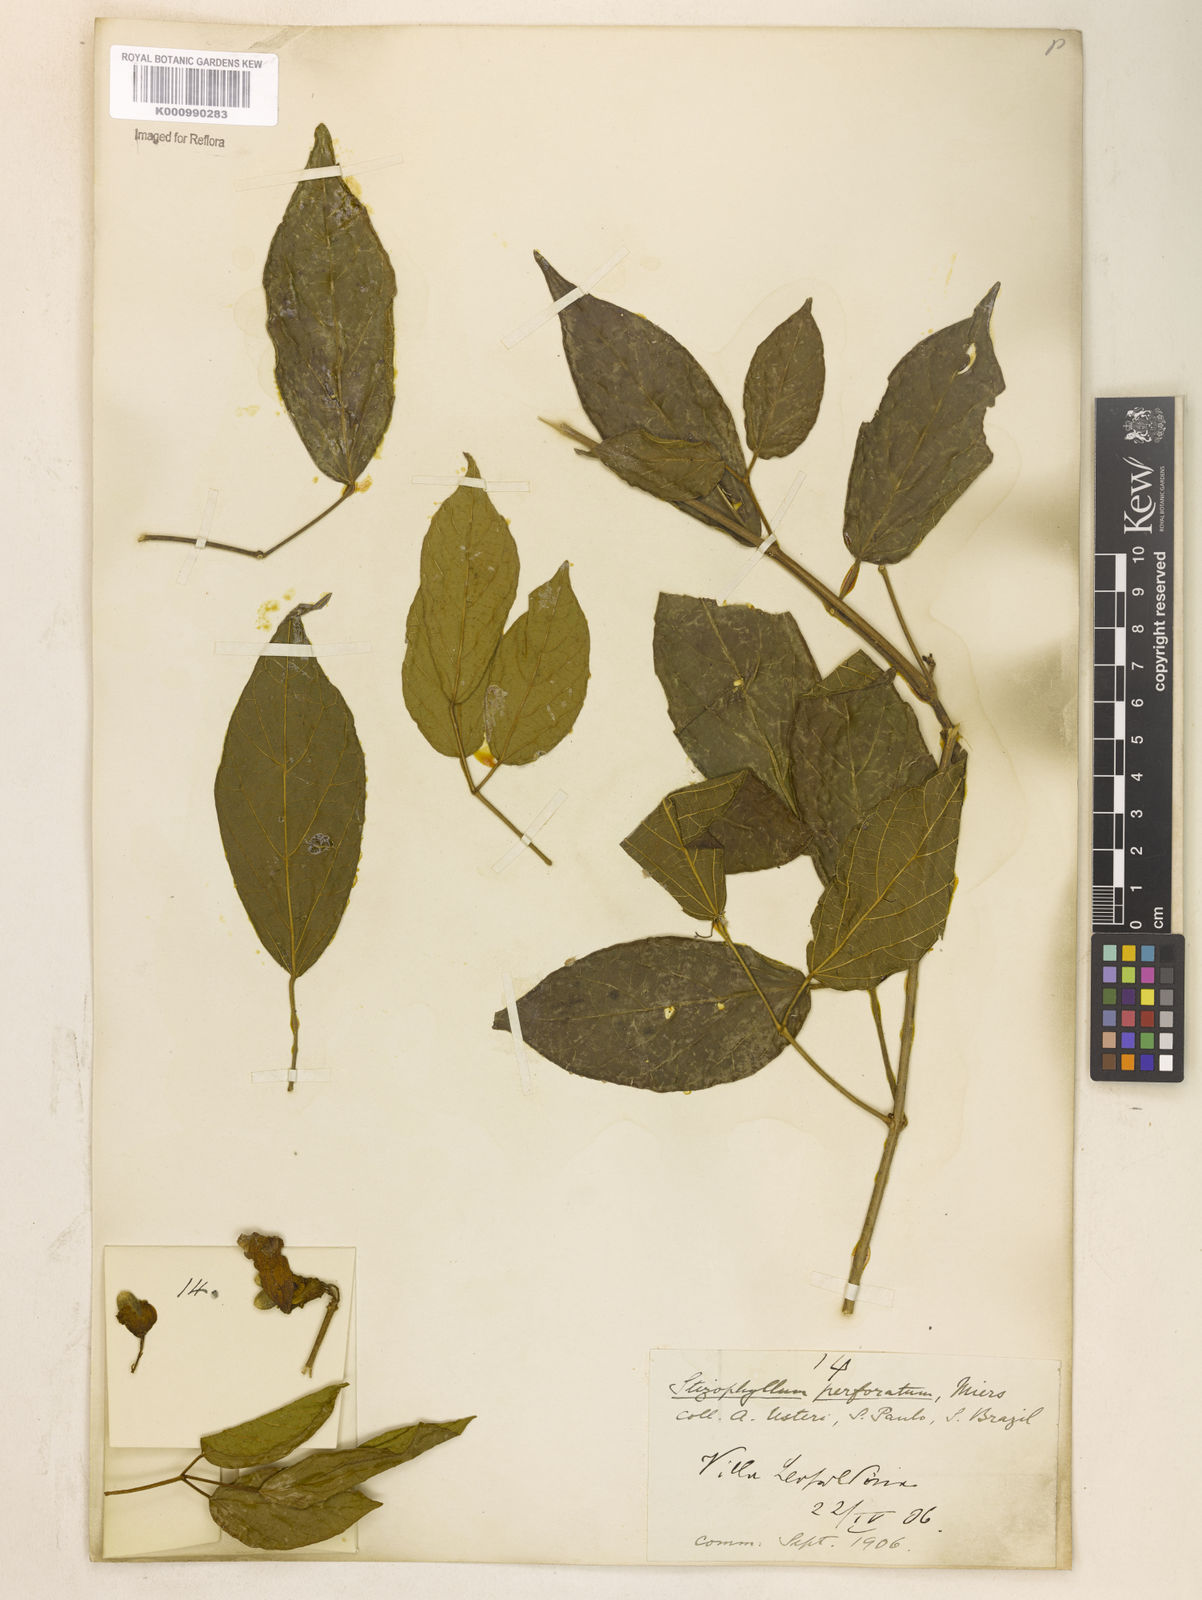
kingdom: Plantae
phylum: Tracheophyta
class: Magnoliopsida
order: Lamiales
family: Bignoniaceae
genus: Stizophyllum
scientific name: Stizophyllum perforatum
